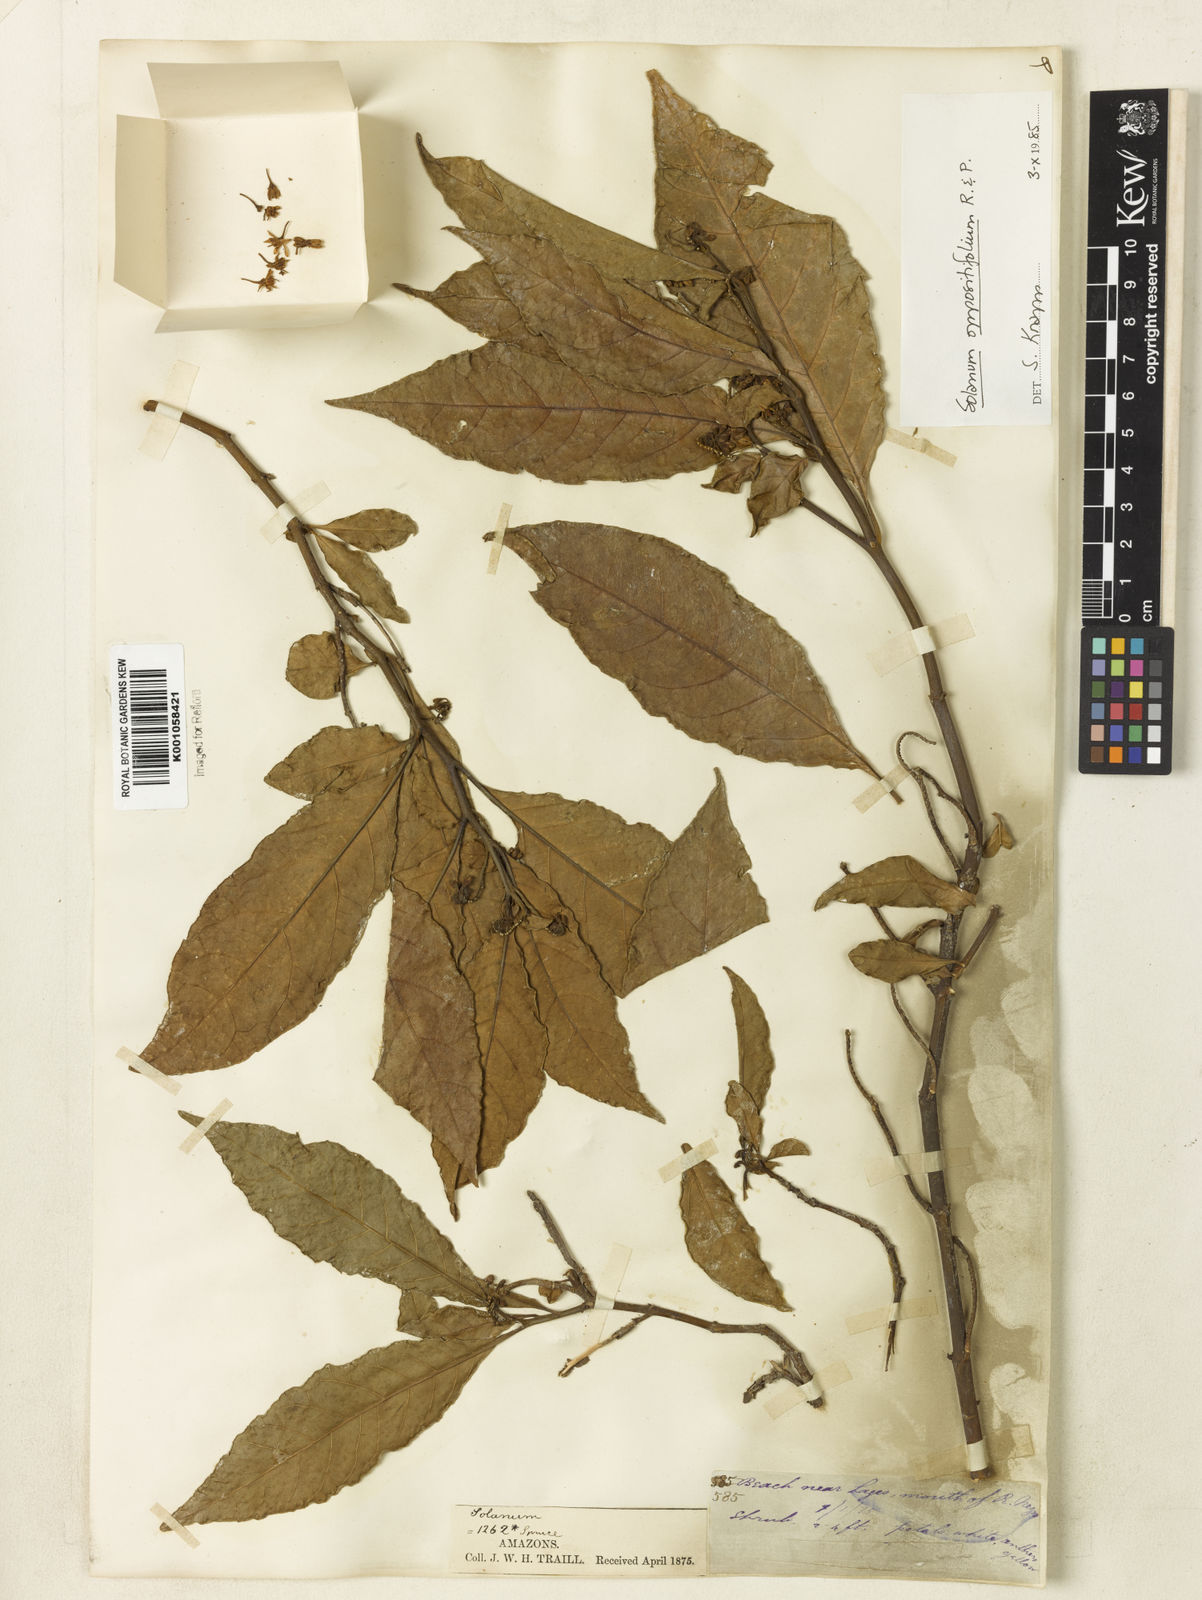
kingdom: Plantae
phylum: Tracheophyta
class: Magnoliopsida
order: Solanales
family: Solanaceae
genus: Solanum
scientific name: Solanum oppositifolium
